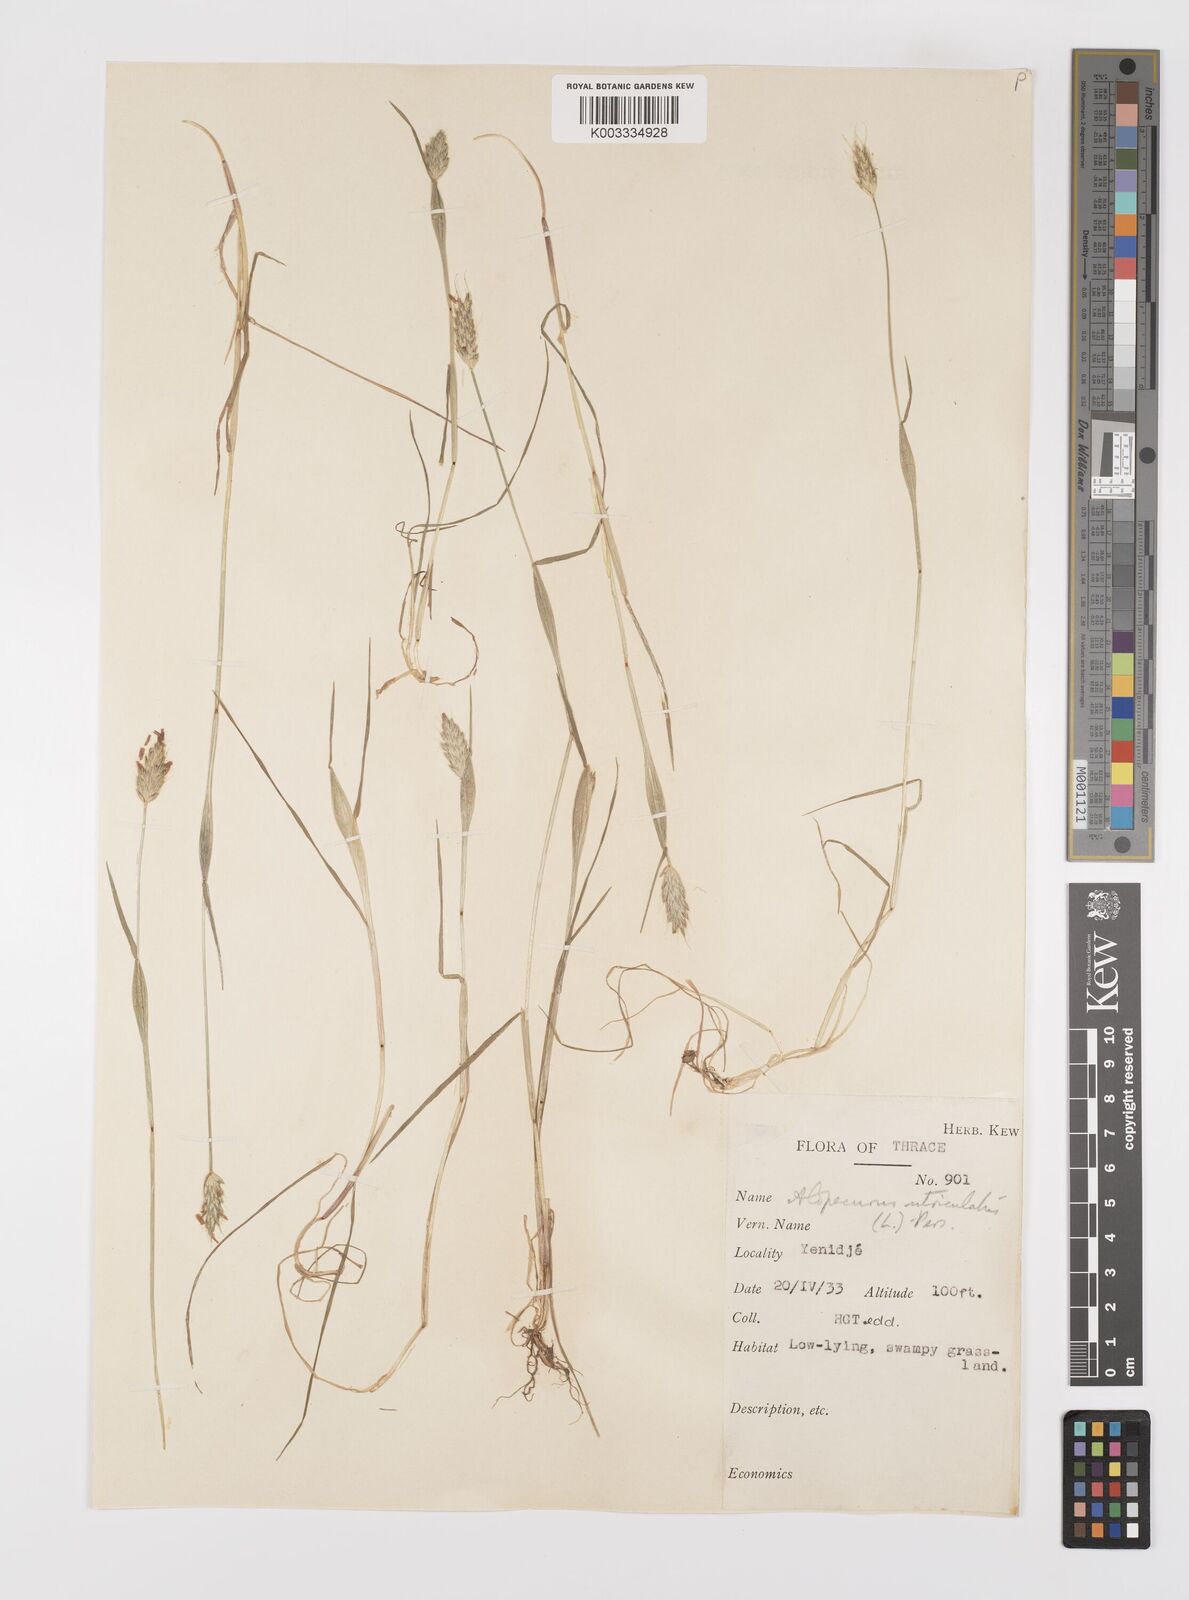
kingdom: Plantae
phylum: Tracheophyta
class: Liliopsida
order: Poales
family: Poaceae
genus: Alopecurus
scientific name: Alopecurus rendlei
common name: Rendle's meadow foxtail
